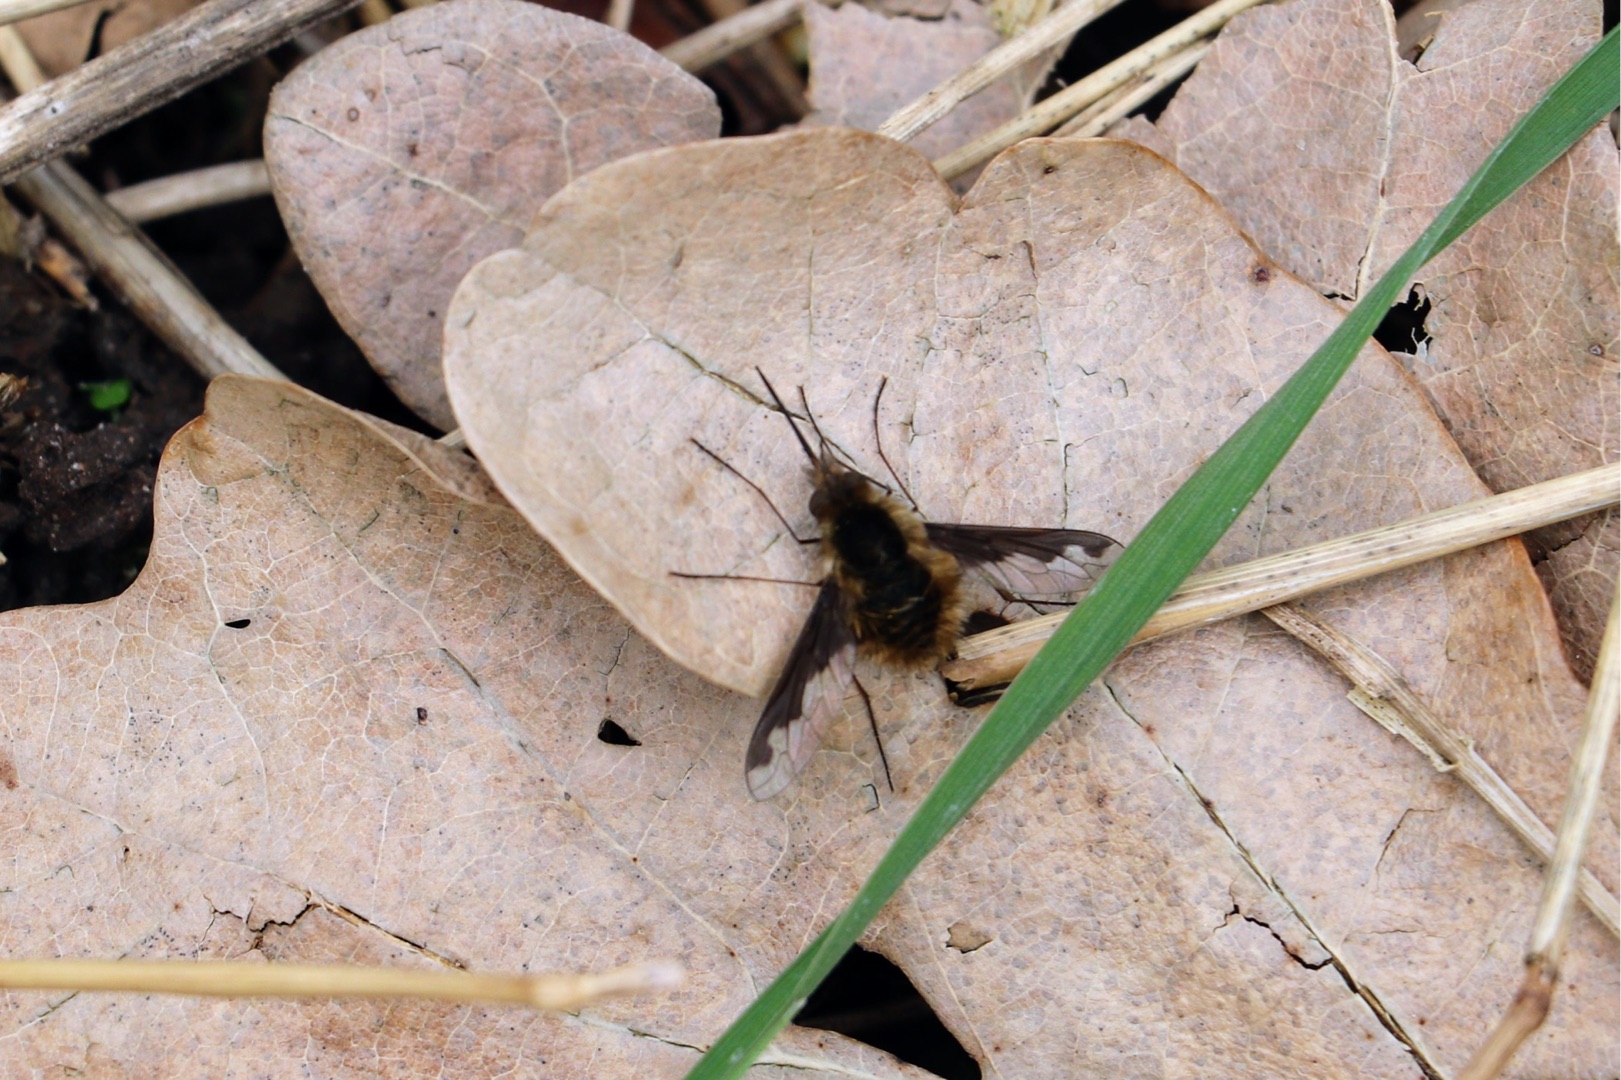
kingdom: Animalia
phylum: Arthropoda
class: Insecta
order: Diptera
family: Bombyliidae
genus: Bombylius
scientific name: Bombylius major
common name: Stor humleflue
